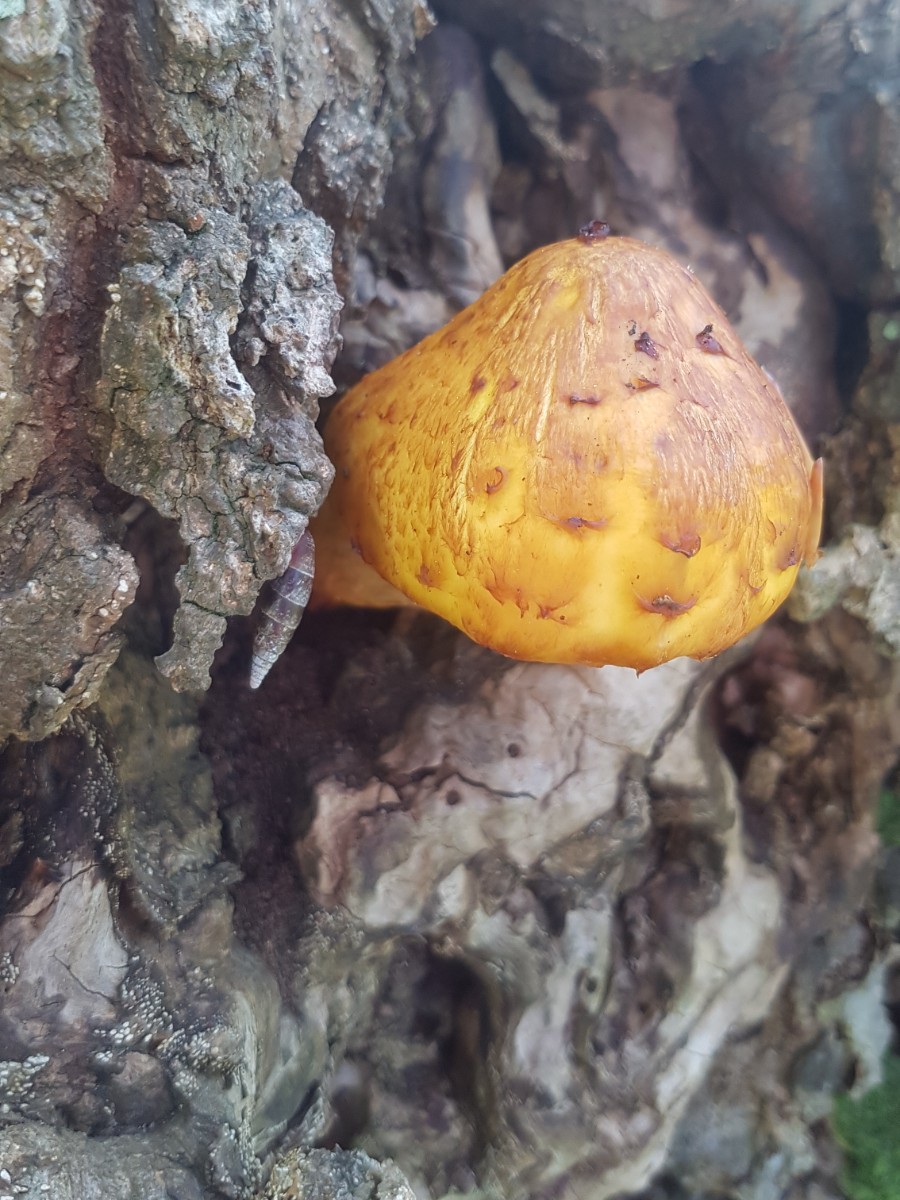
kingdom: Fungi
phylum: Basidiomycota
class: Agaricomycetes
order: Agaricales
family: Strophariaceae
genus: Pholiota
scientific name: Pholiota adiposa
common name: højtsiddende skælhat
